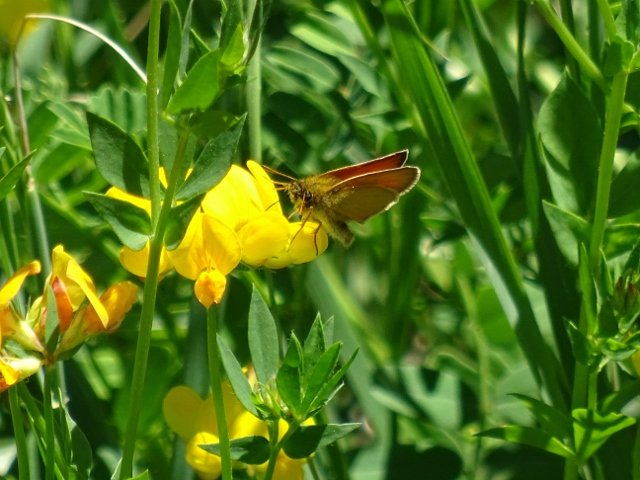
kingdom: Animalia
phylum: Arthropoda
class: Insecta
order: Lepidoptera
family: Hesperiidae
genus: Thymelicus
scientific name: Thymelicus lineola
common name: European Skipper
